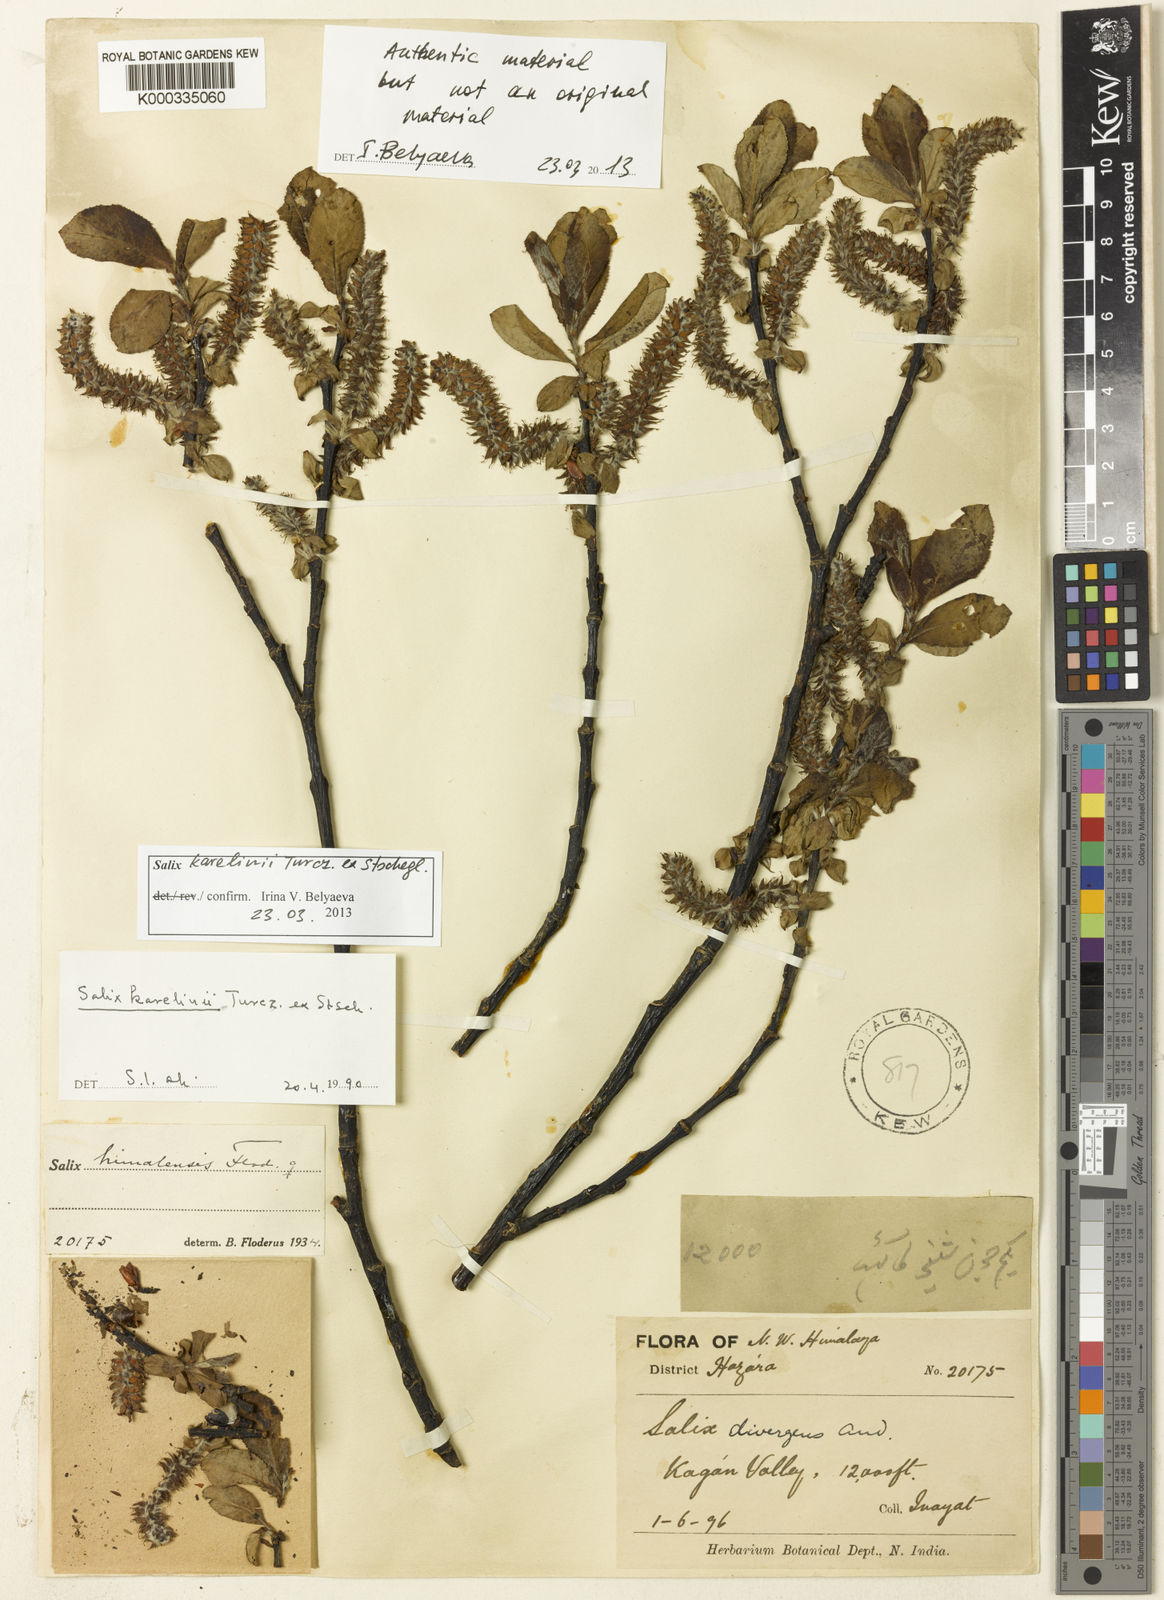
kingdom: Plantae
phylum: Tracheophyta
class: Magnoliopsida
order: Malpighiales
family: Salicaceae
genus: Salix
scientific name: Salix karelinii
